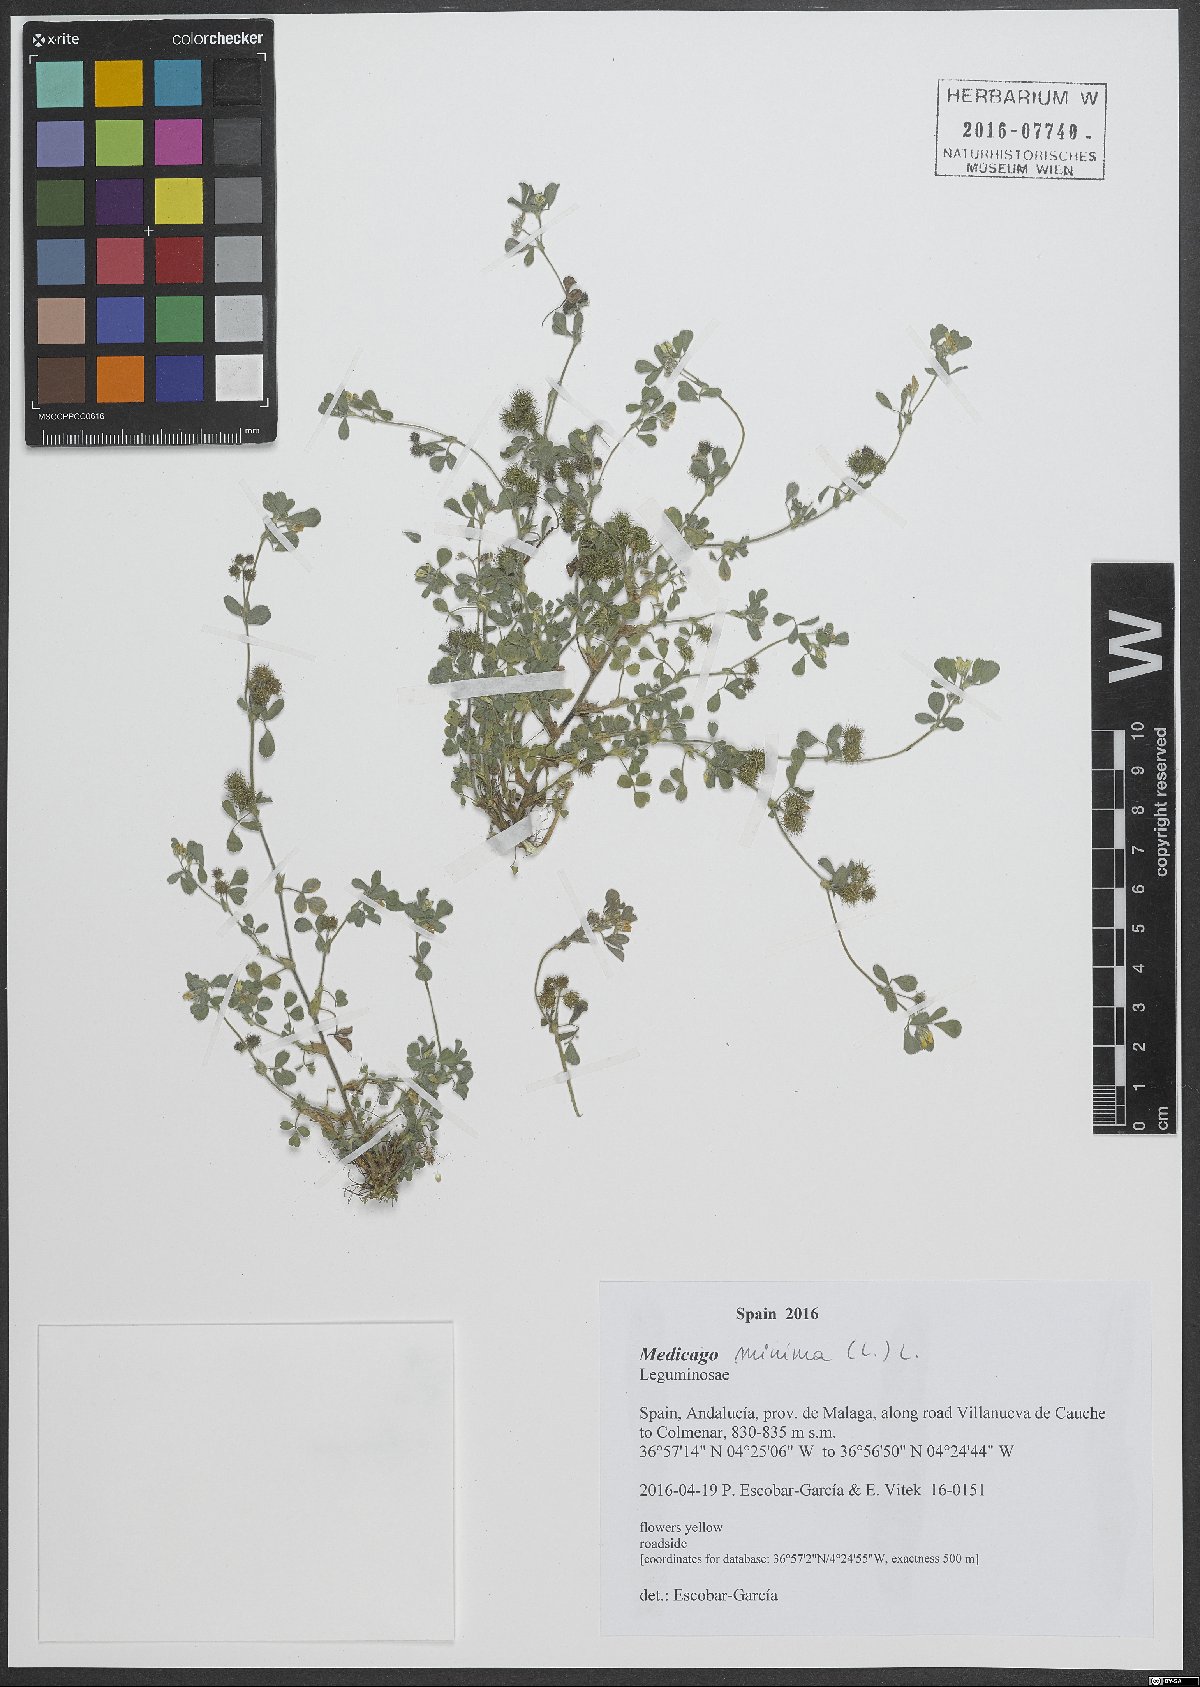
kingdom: Plantae
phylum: Tracheophyta
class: Magnoliopsida
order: Fabales
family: Fabaceae
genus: Medicago
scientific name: Medicago minima
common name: Little bur-clover
